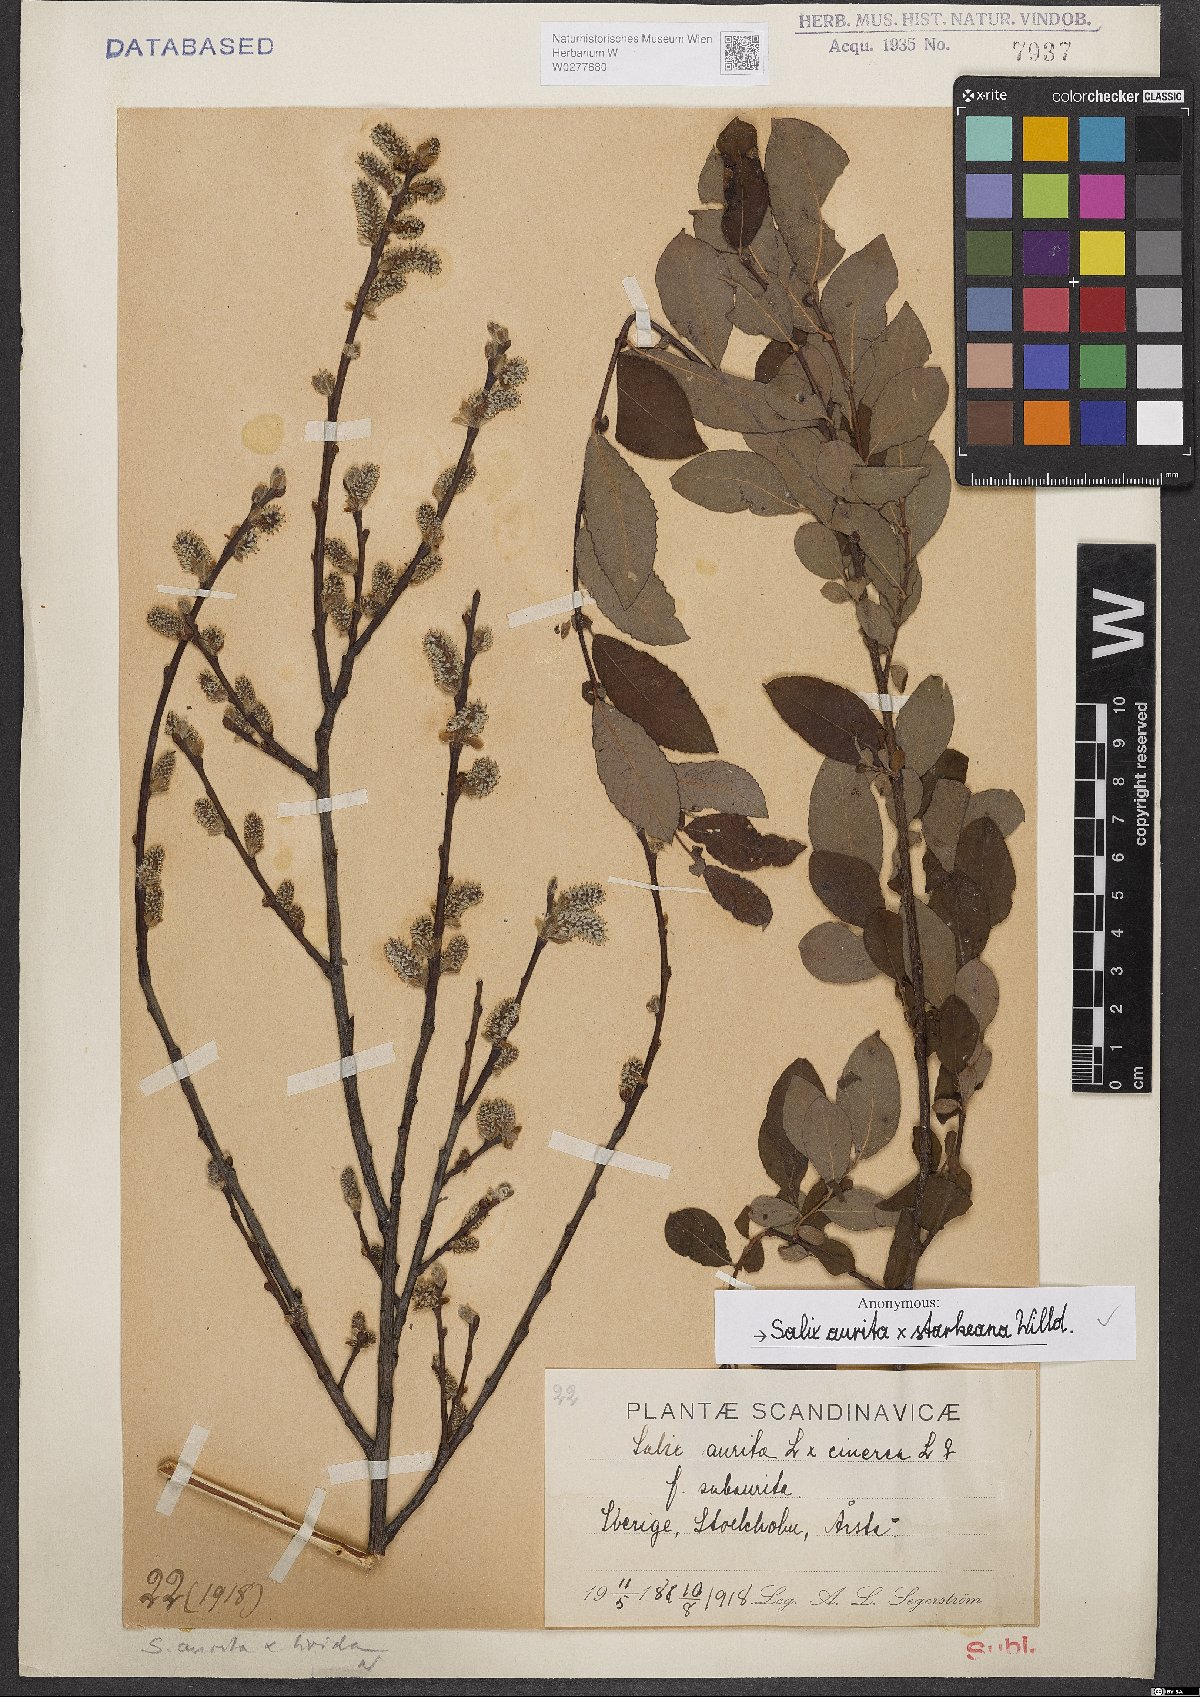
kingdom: Plantae
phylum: Tracheophyta
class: Magnoliopsida
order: Malpighiales
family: Salicaceae
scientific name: Salicaceae
